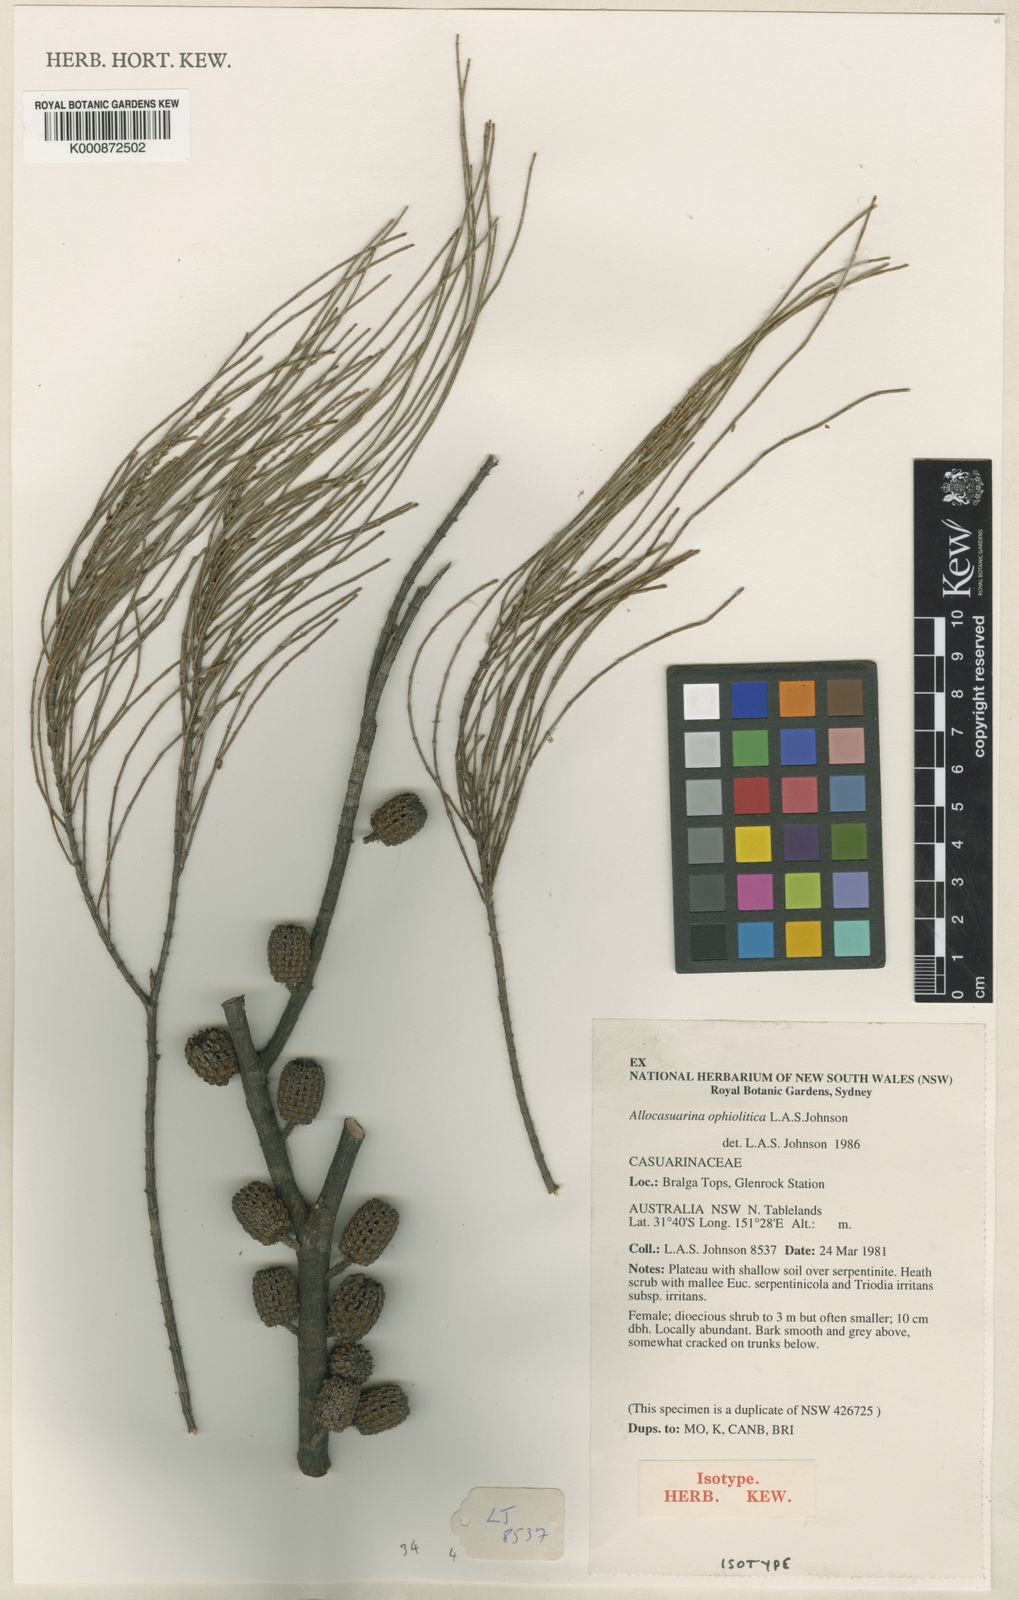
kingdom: Plantae
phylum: Tracheophyta
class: Magnoliopsida
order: Fagales
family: Casuarinaceae
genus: Allocasuarina
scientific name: Allocasuarina ophiolitica
